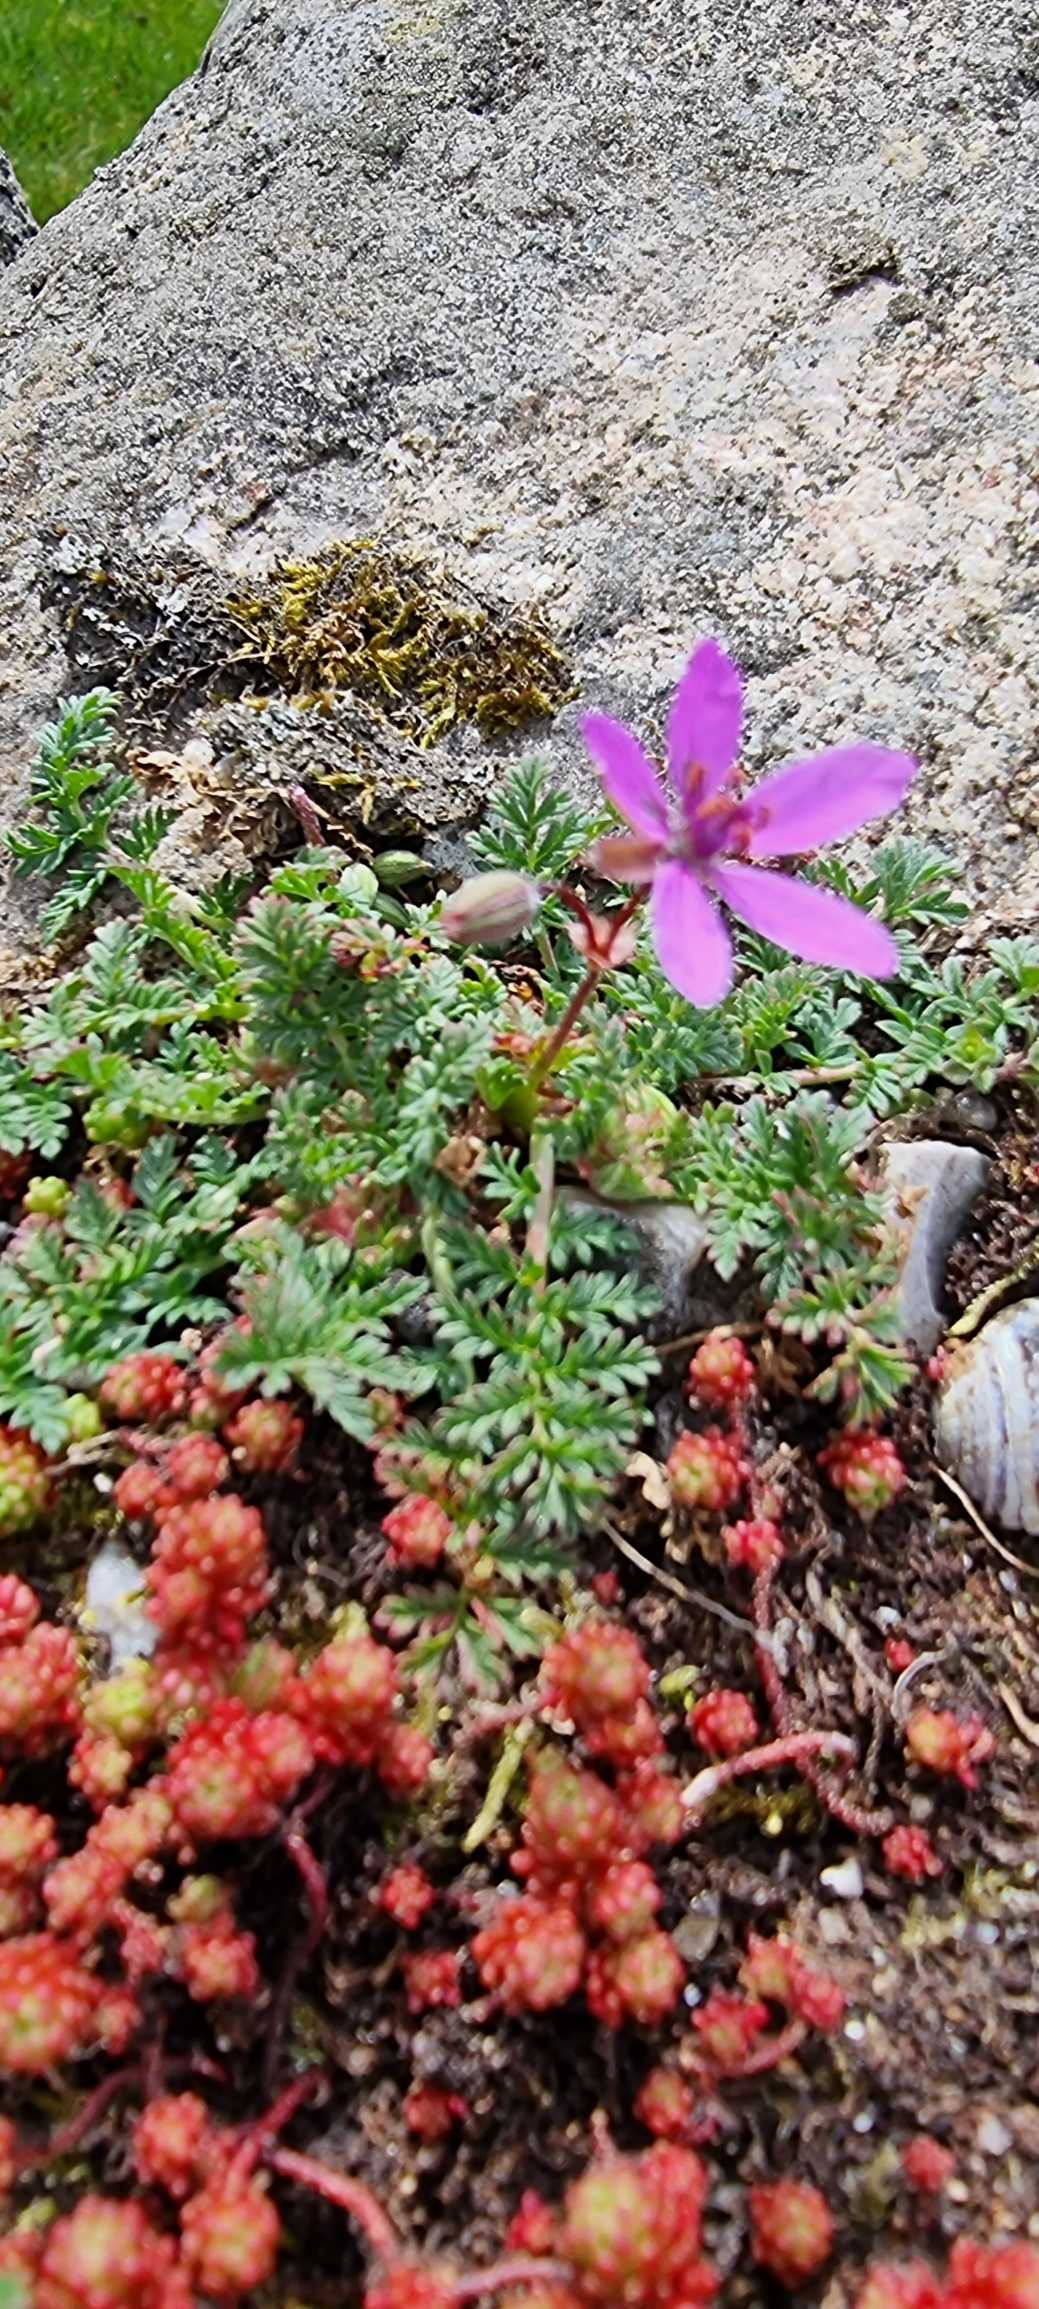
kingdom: Plantae
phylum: Tracheophyta
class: Magnoliopsida
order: Geraniales
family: Geraniaceae
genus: Erodium
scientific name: Erodium cicutarium
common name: Hejrenæb
